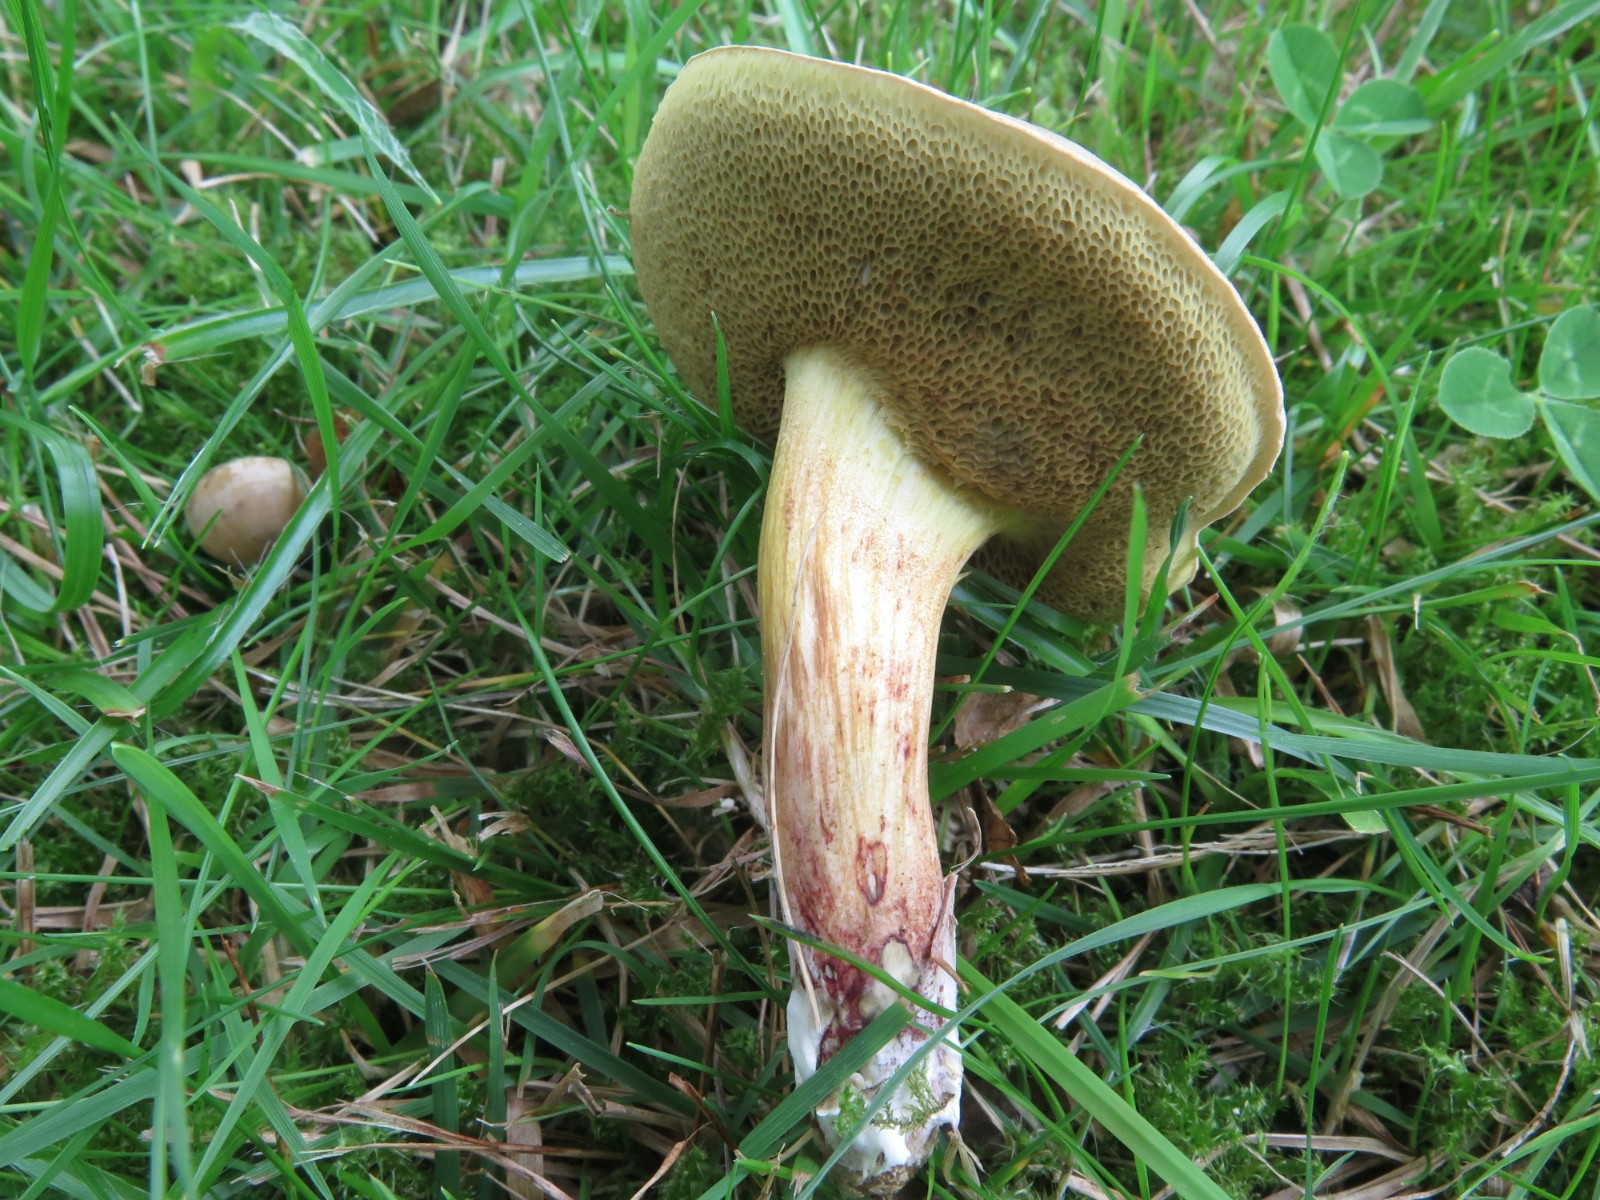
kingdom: Fungi
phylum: Basidiomycota
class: Agaricomycetes
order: Boletales
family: Boletaceae
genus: Xerocomus
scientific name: Xerocomus
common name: filtrørhat
